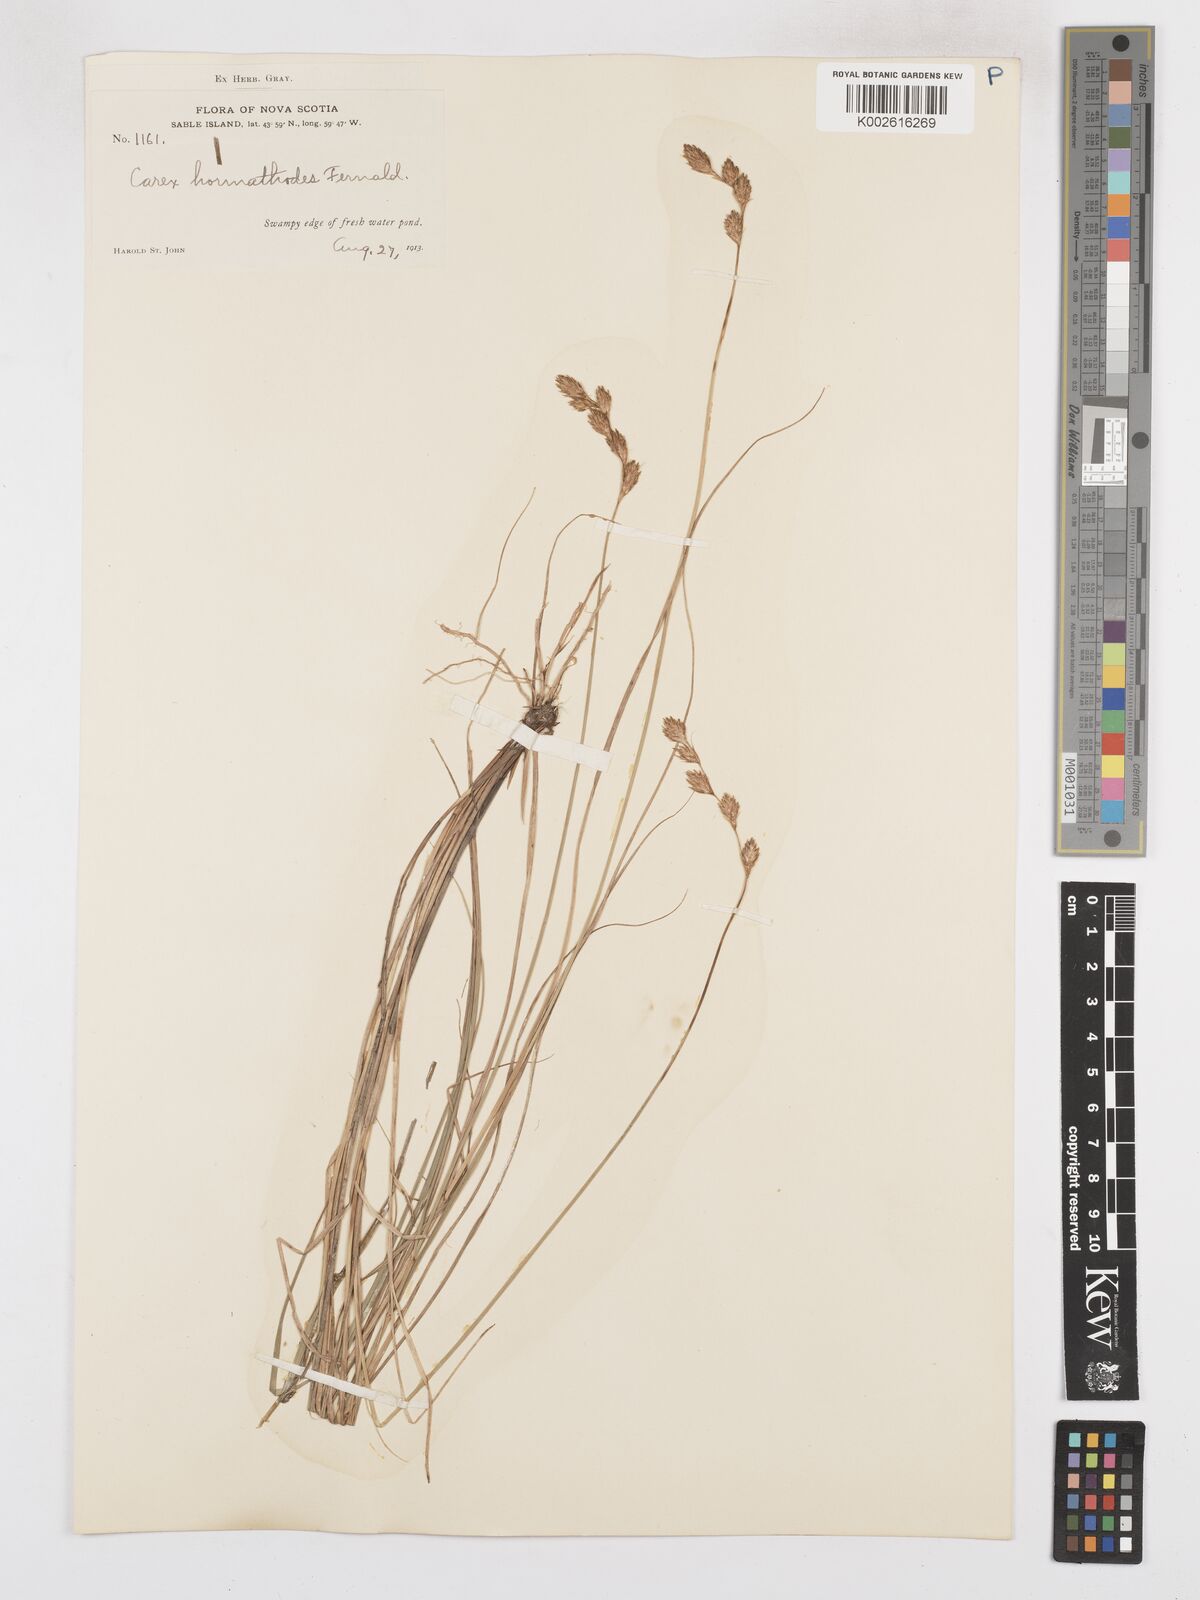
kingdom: Plantae
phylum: Tracheophyta
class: Liliopsida
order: Poales
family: Cyperaceae
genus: Carex
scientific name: Carex hormathodes
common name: Marsh straw sedge
